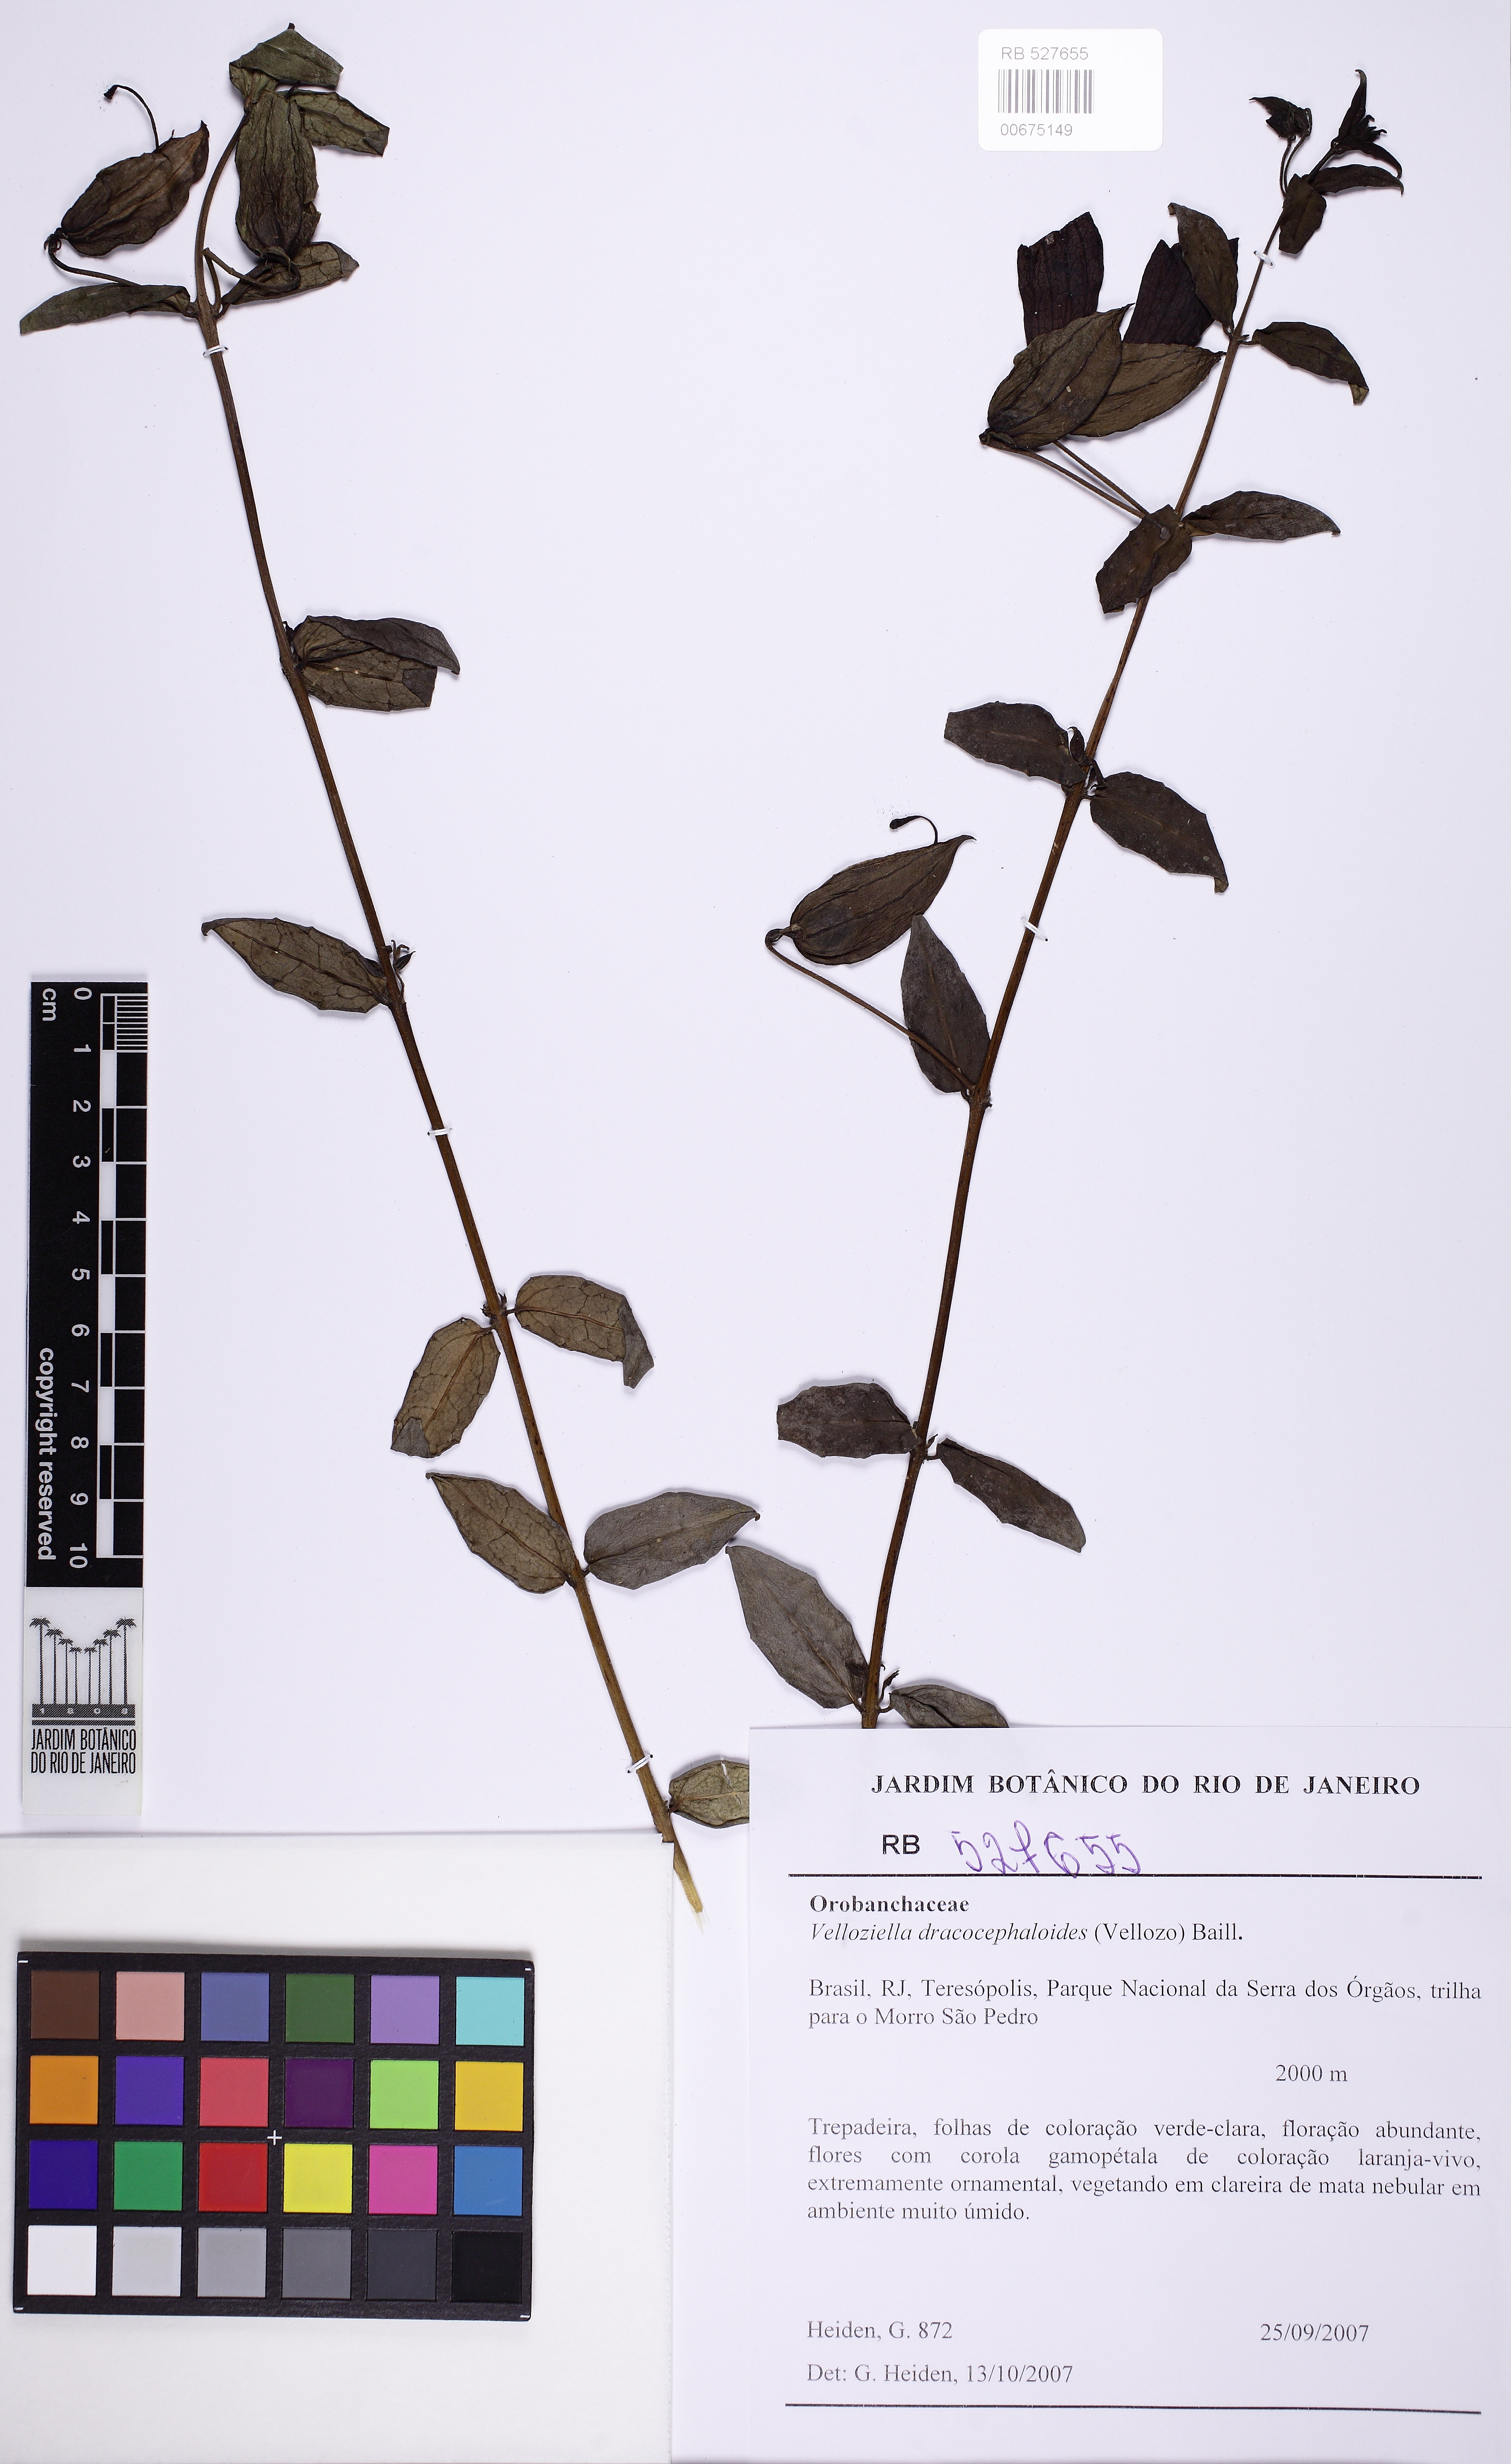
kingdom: Plantae
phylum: Tracheophyta
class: Magnoliopsida
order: Lamiales
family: Orobanchaceae
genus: Vellosiella
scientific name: Vellosiella dracocephaloides
